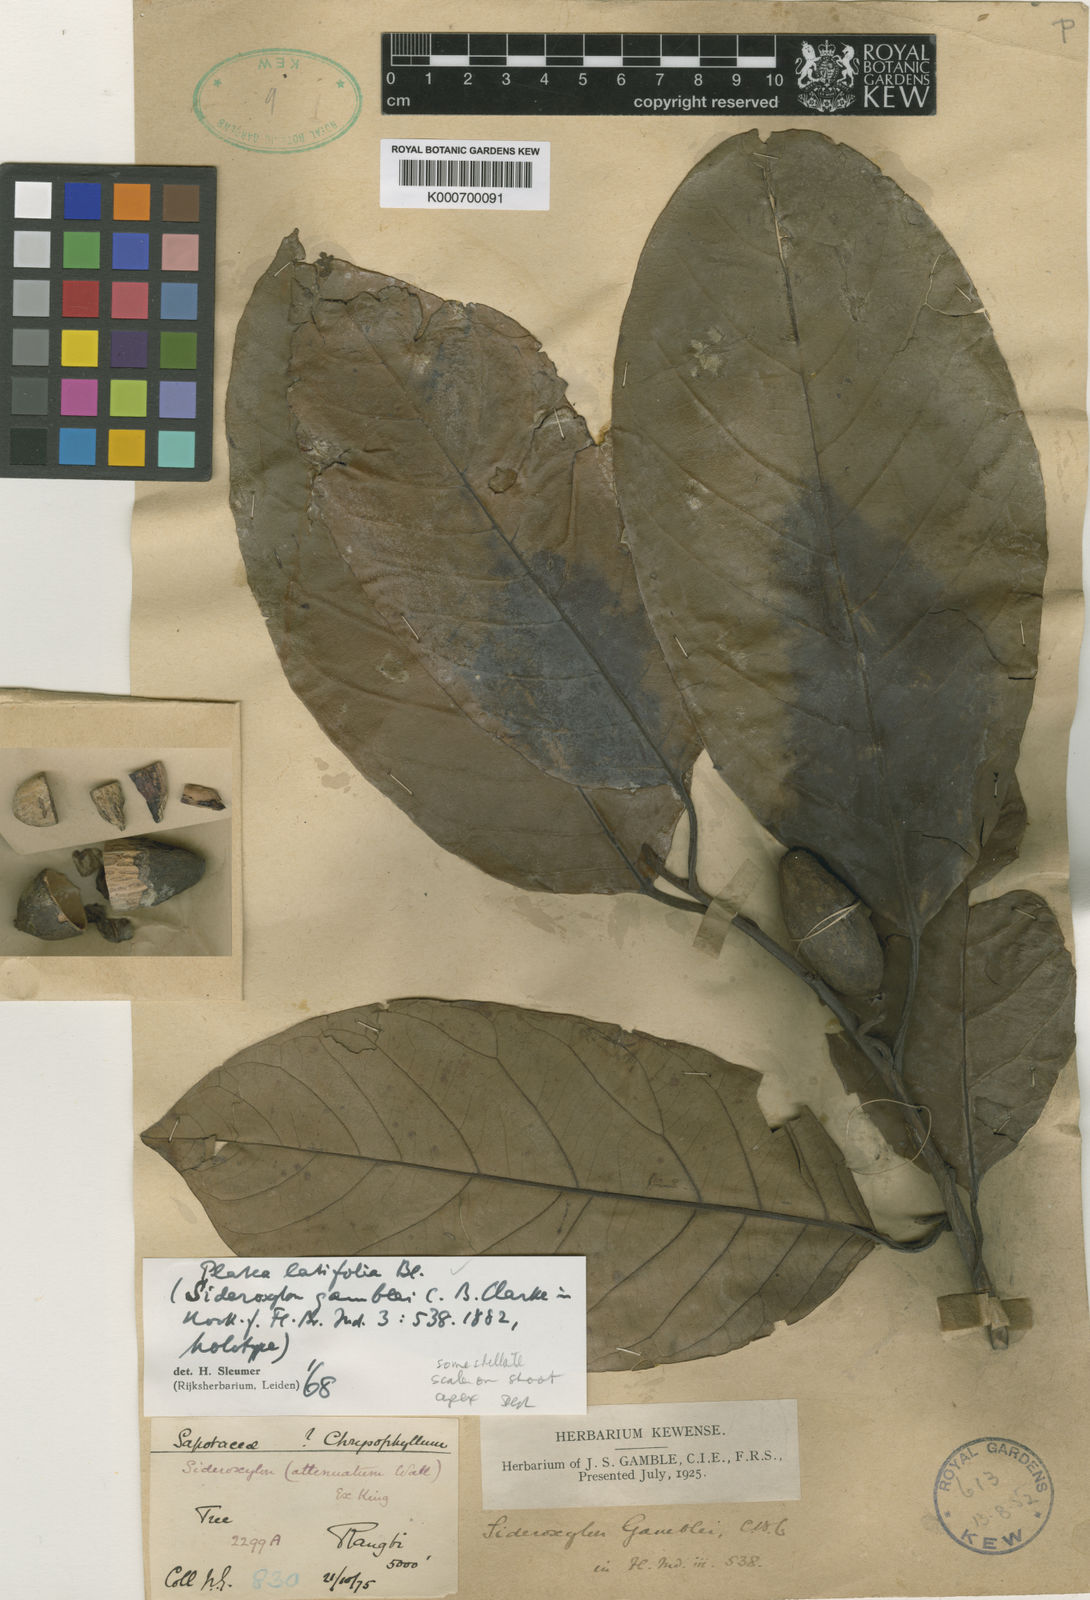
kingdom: Plantae
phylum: Tracheophyta
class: Magnoliopsida
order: Metteniusales
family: Metteniusaceae
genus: Platea
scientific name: Platea latifolia
